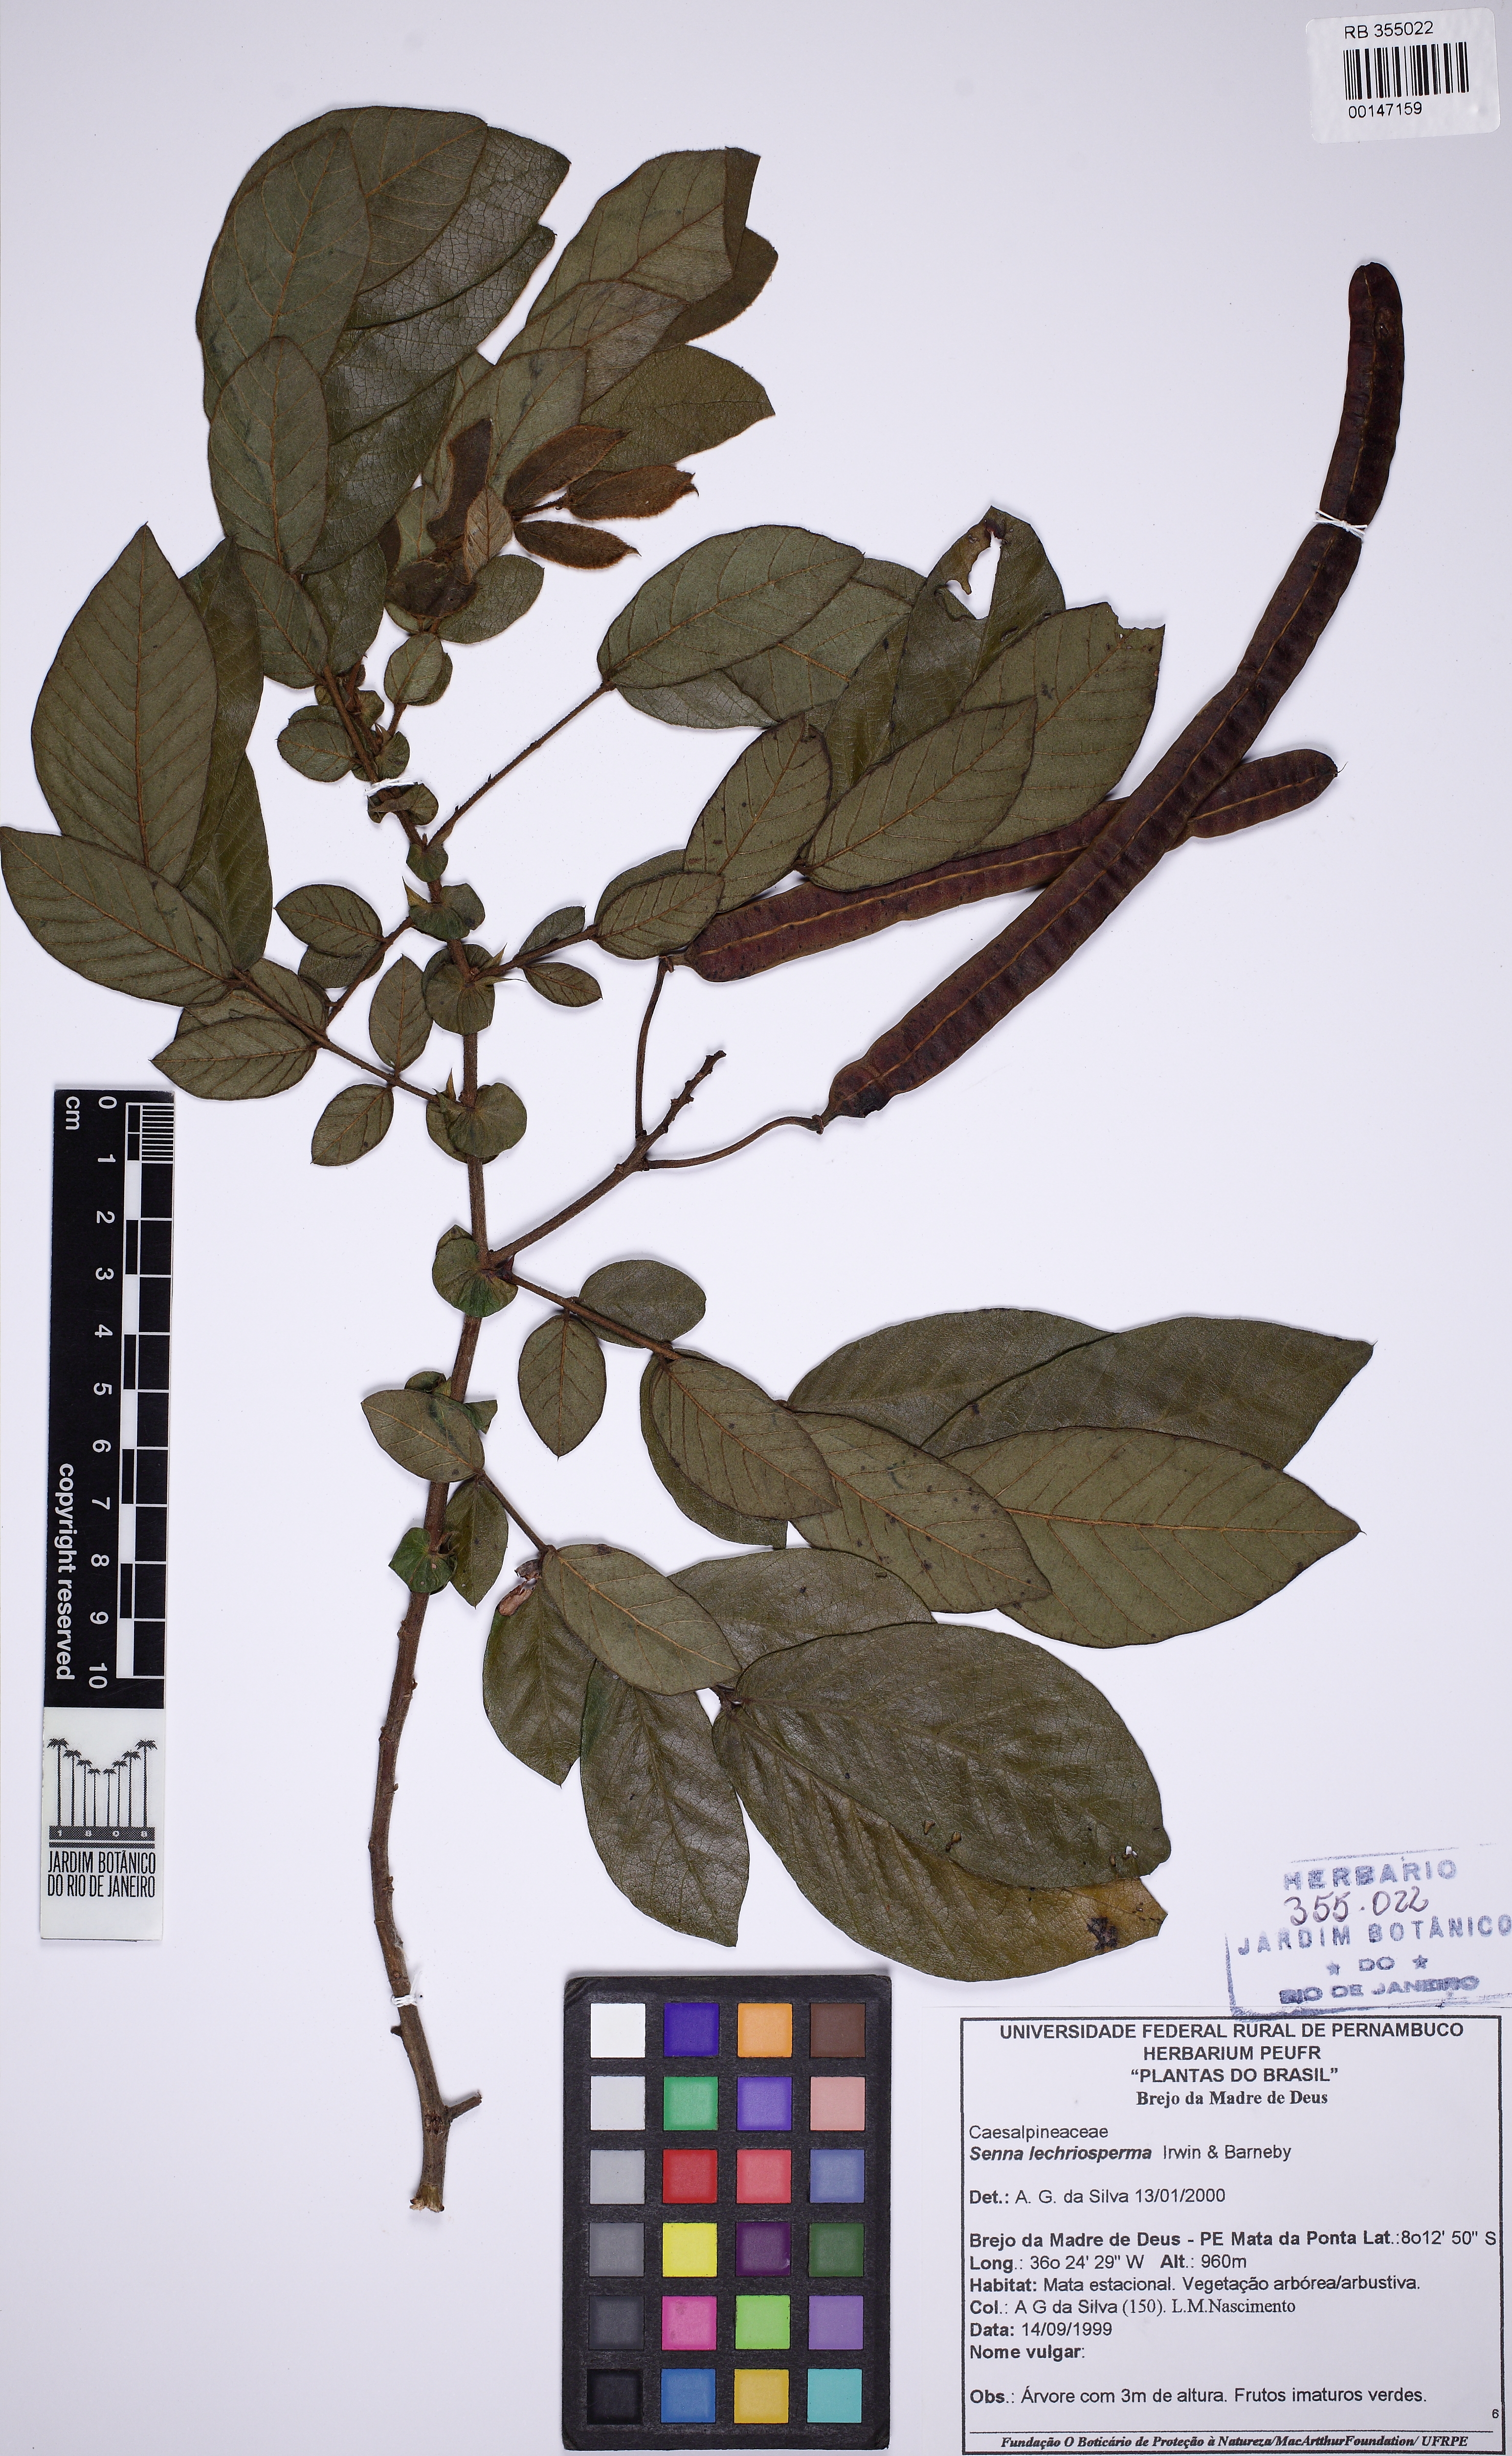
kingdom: Plantae
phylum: Tracheophyta
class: Magnoliopsida
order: Fabales
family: Fabaceae
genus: Senna
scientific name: Senna lechriosperma
